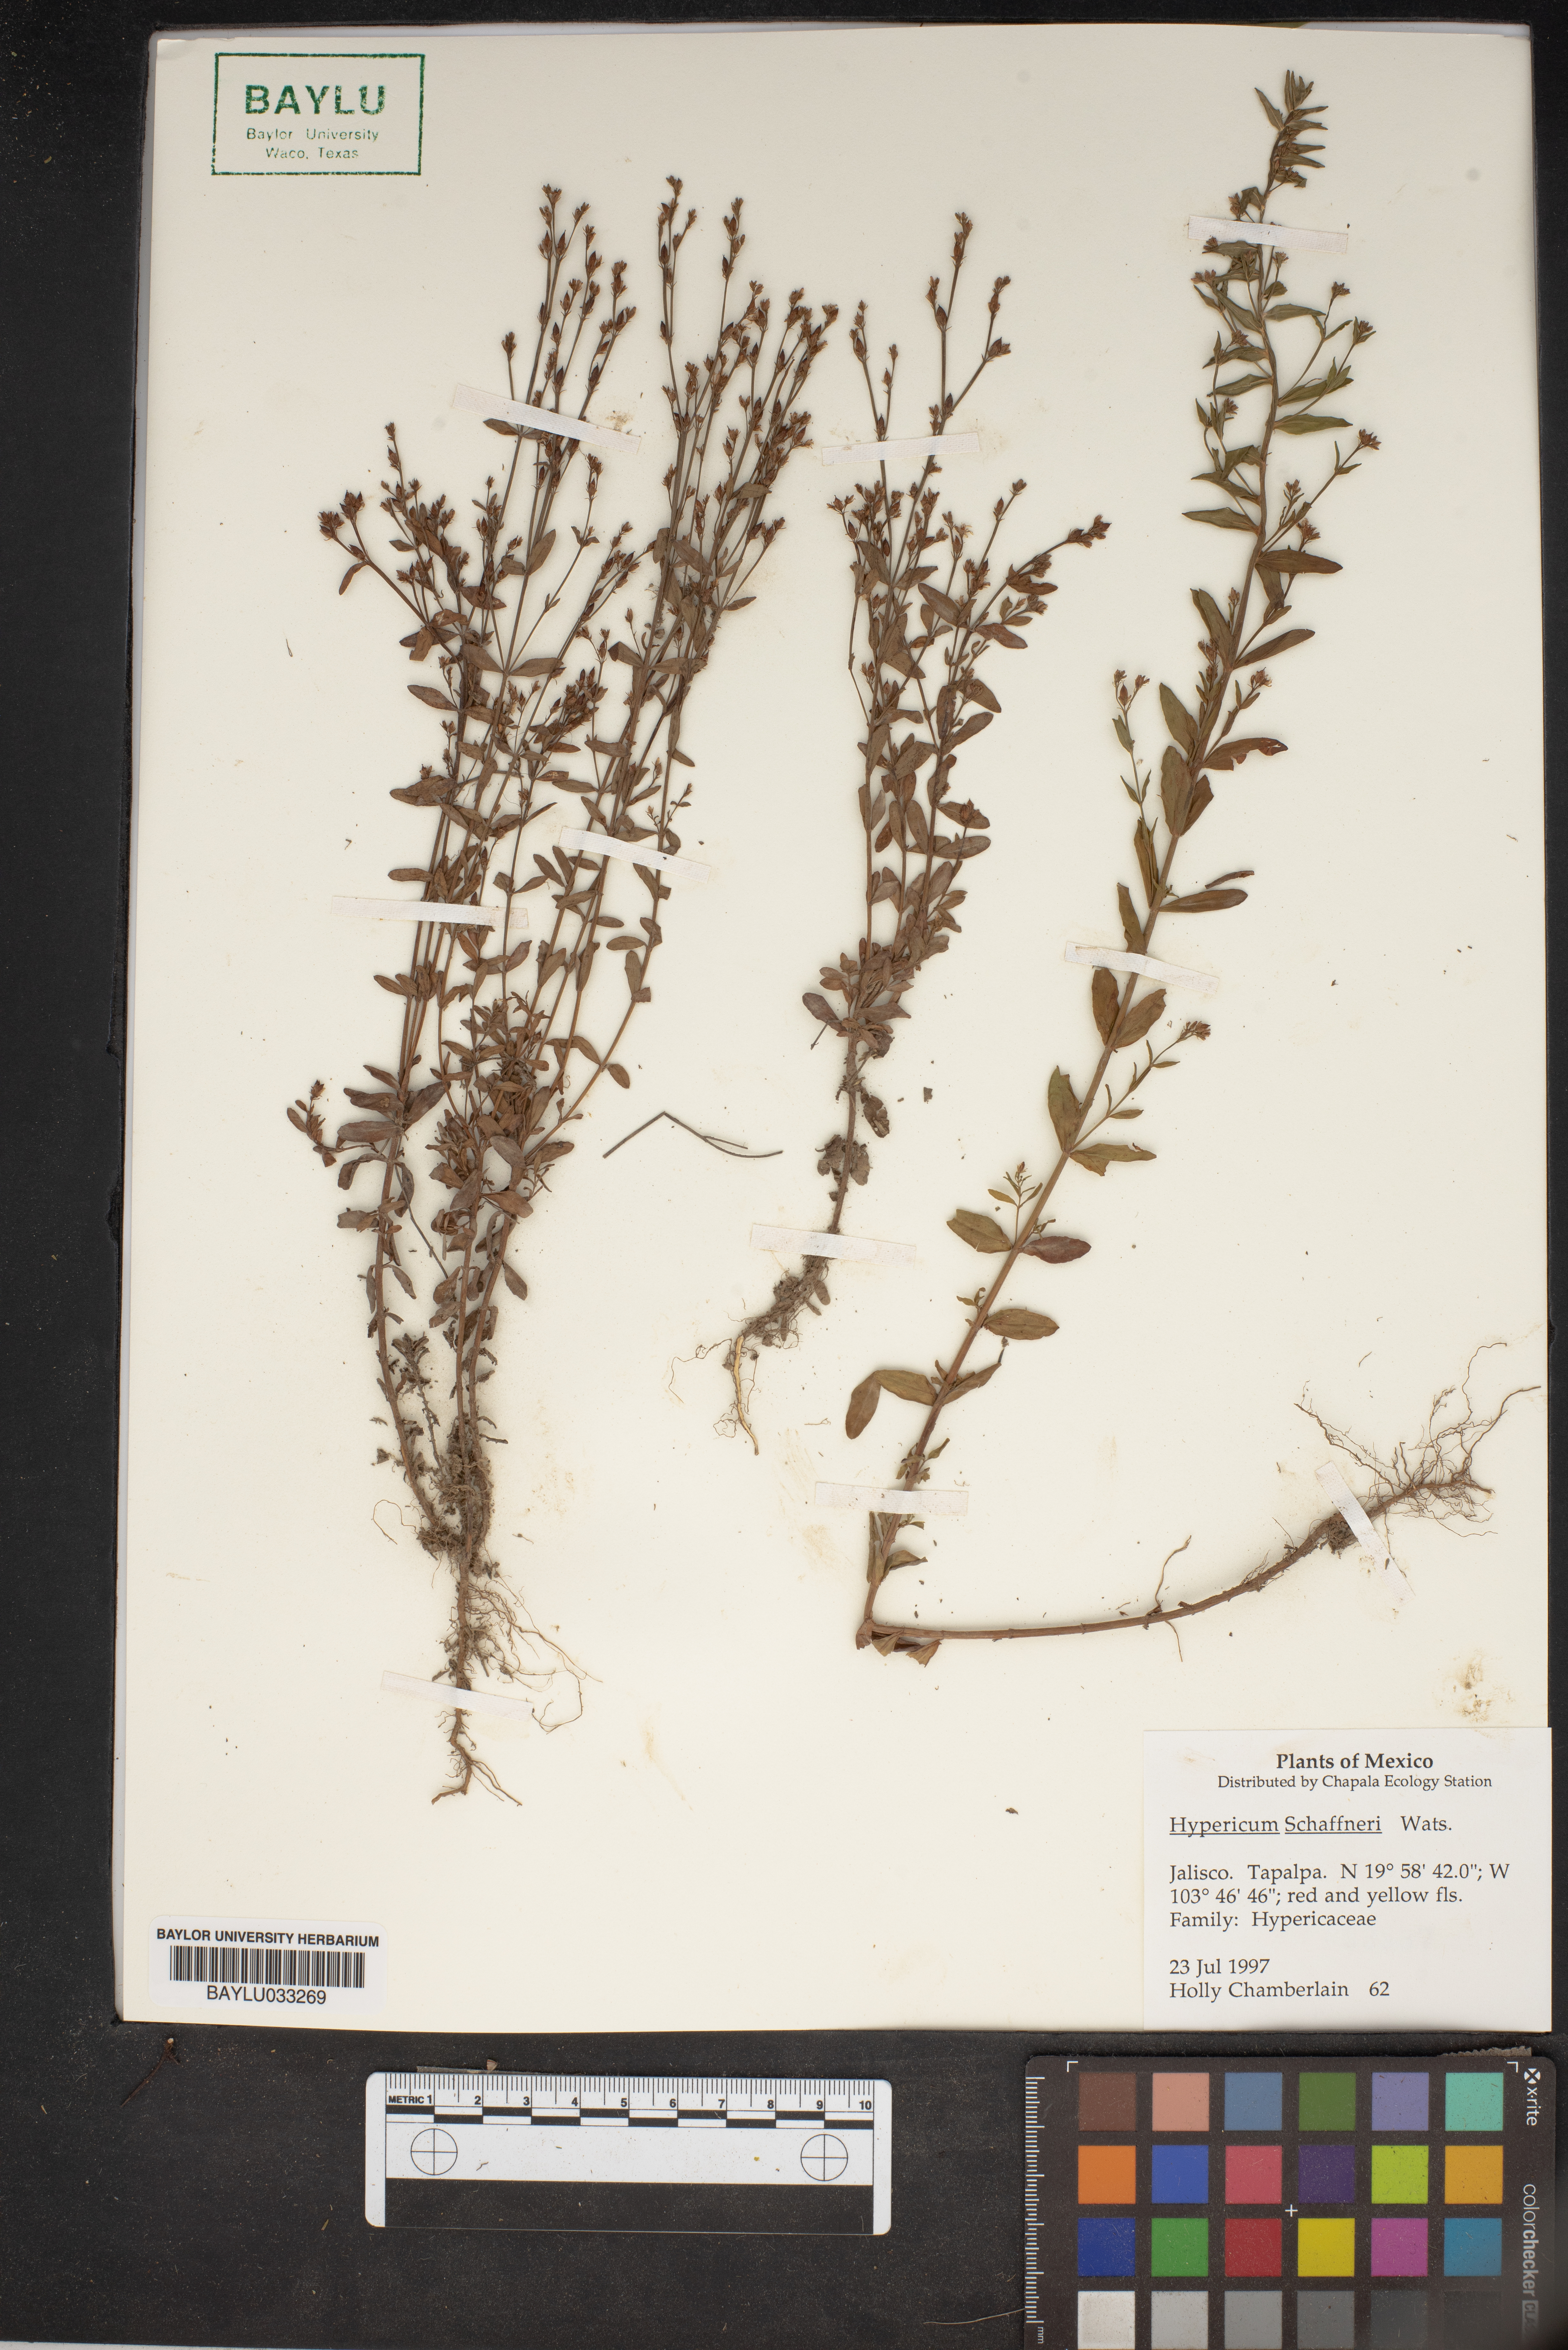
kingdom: Plantae
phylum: Tracheophyta
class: Magnoliopsida
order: Malpighiales
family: Hypericaceae
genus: Hypericum
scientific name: Hypericum moranense
